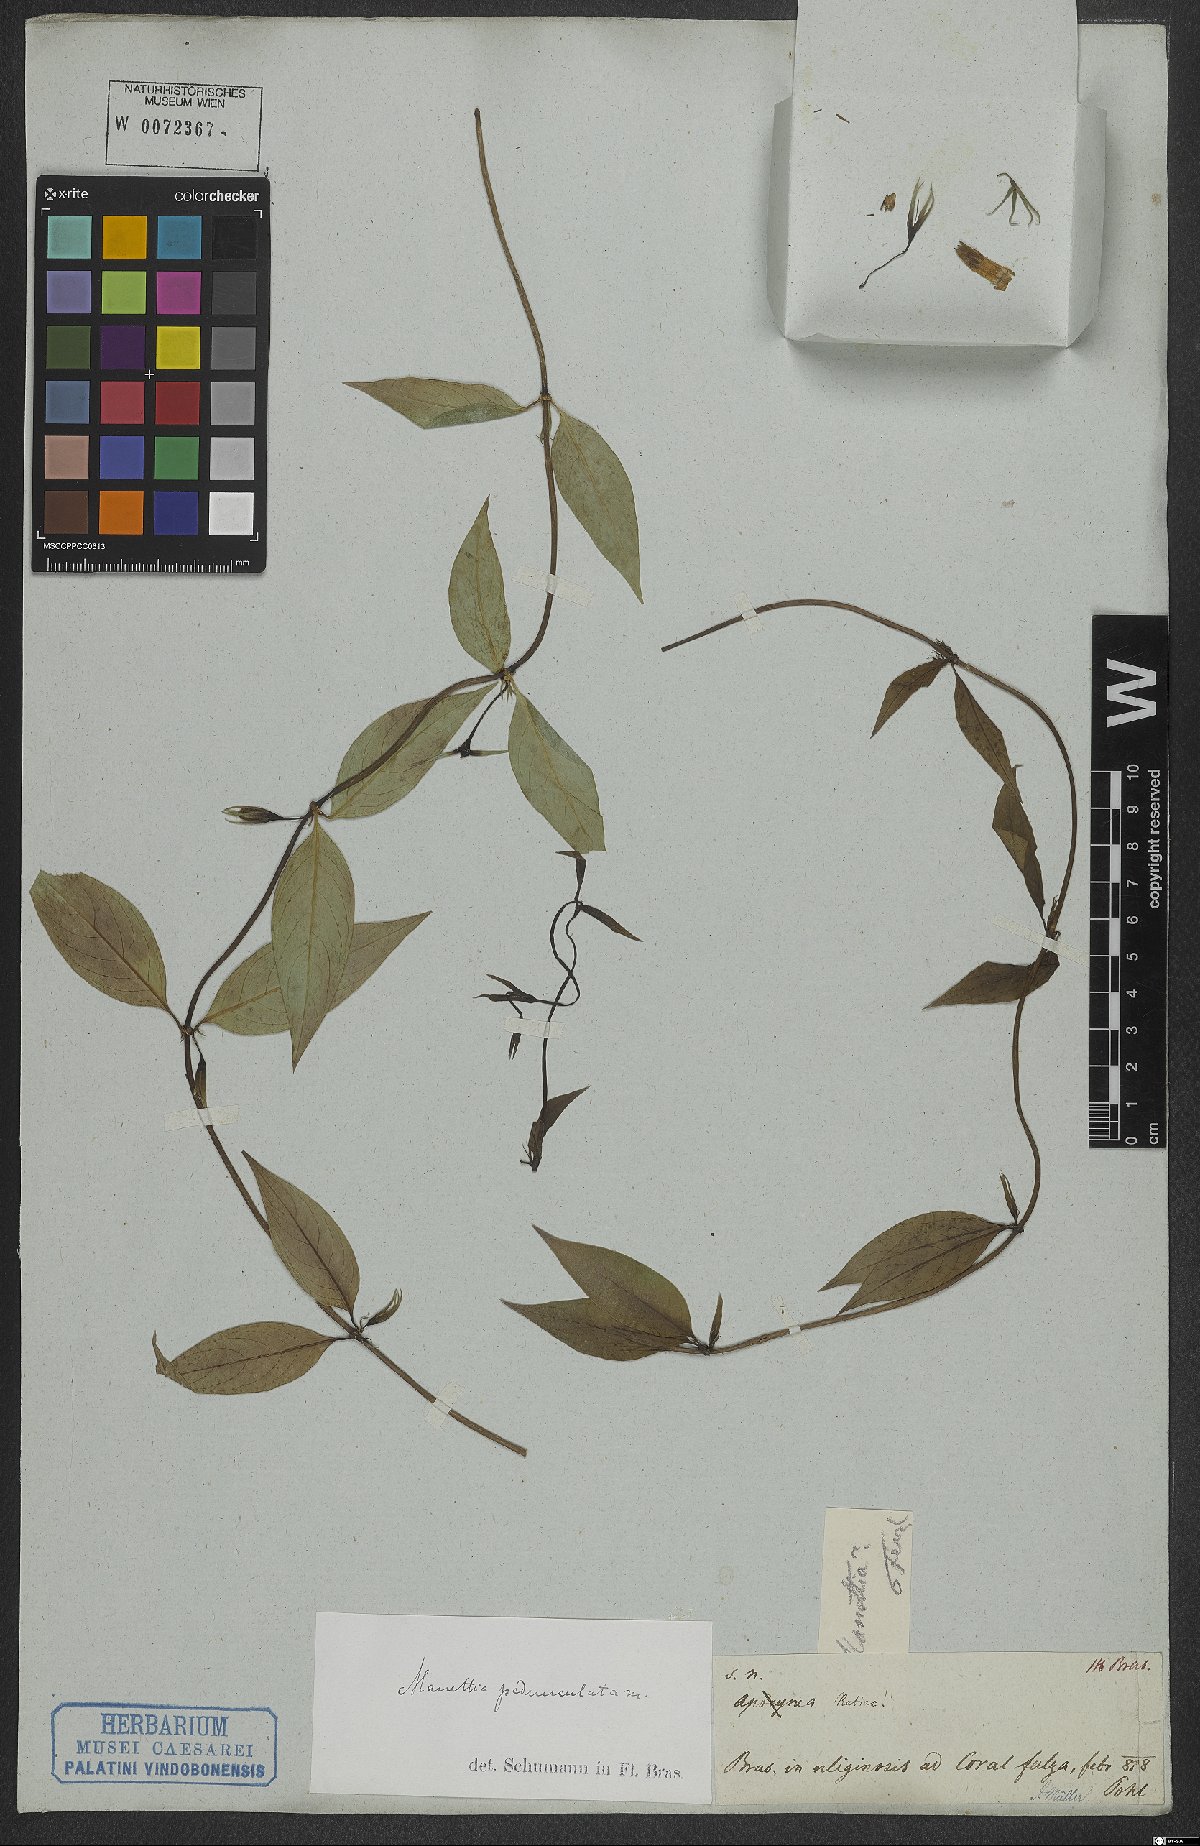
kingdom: Plantae
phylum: Tracheophyta
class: Magnoliopsida
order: Gentianales
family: Rubiaceae
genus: Manettia
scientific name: Manettia pedunculata
